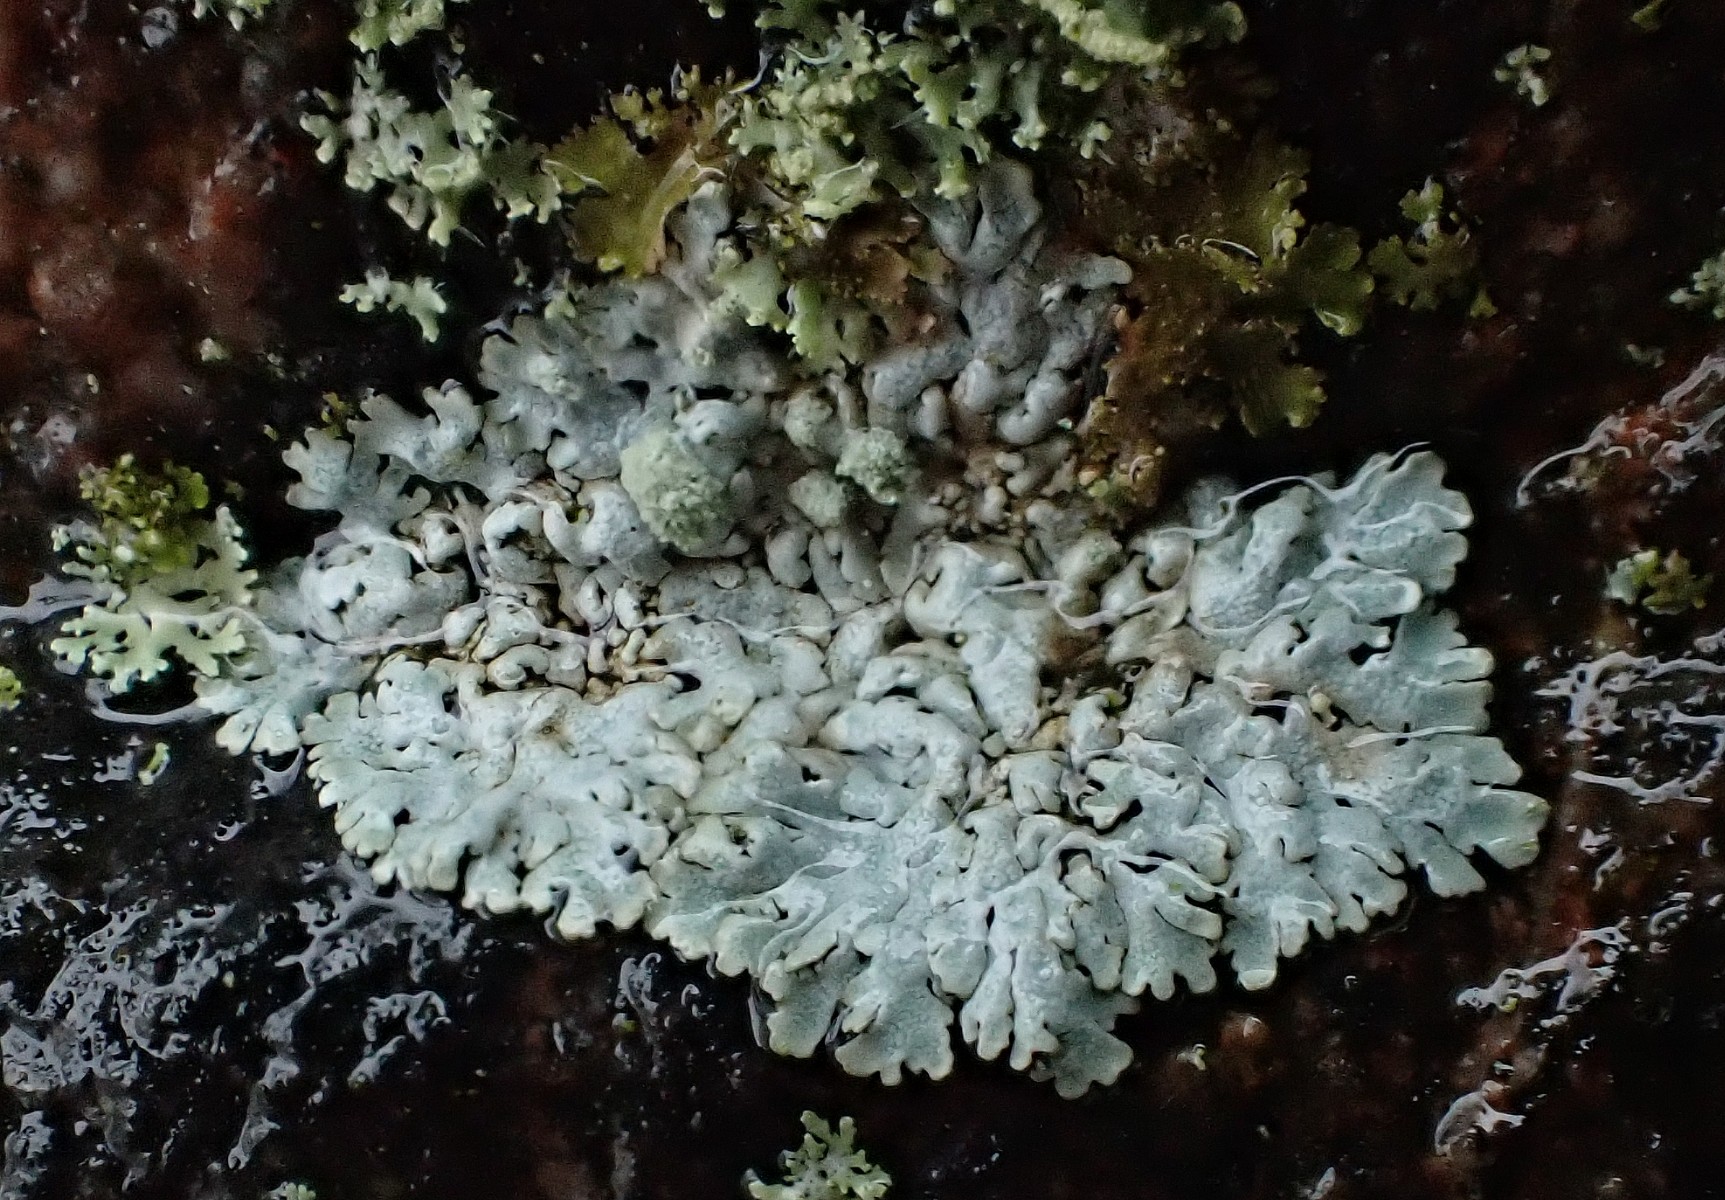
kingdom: Fungi
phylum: Ascomycota
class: Lecanoromycetes
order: Caliciales
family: Physciaceae
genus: Physcia
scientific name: Physcia caesia
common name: blågrå rosetlav
